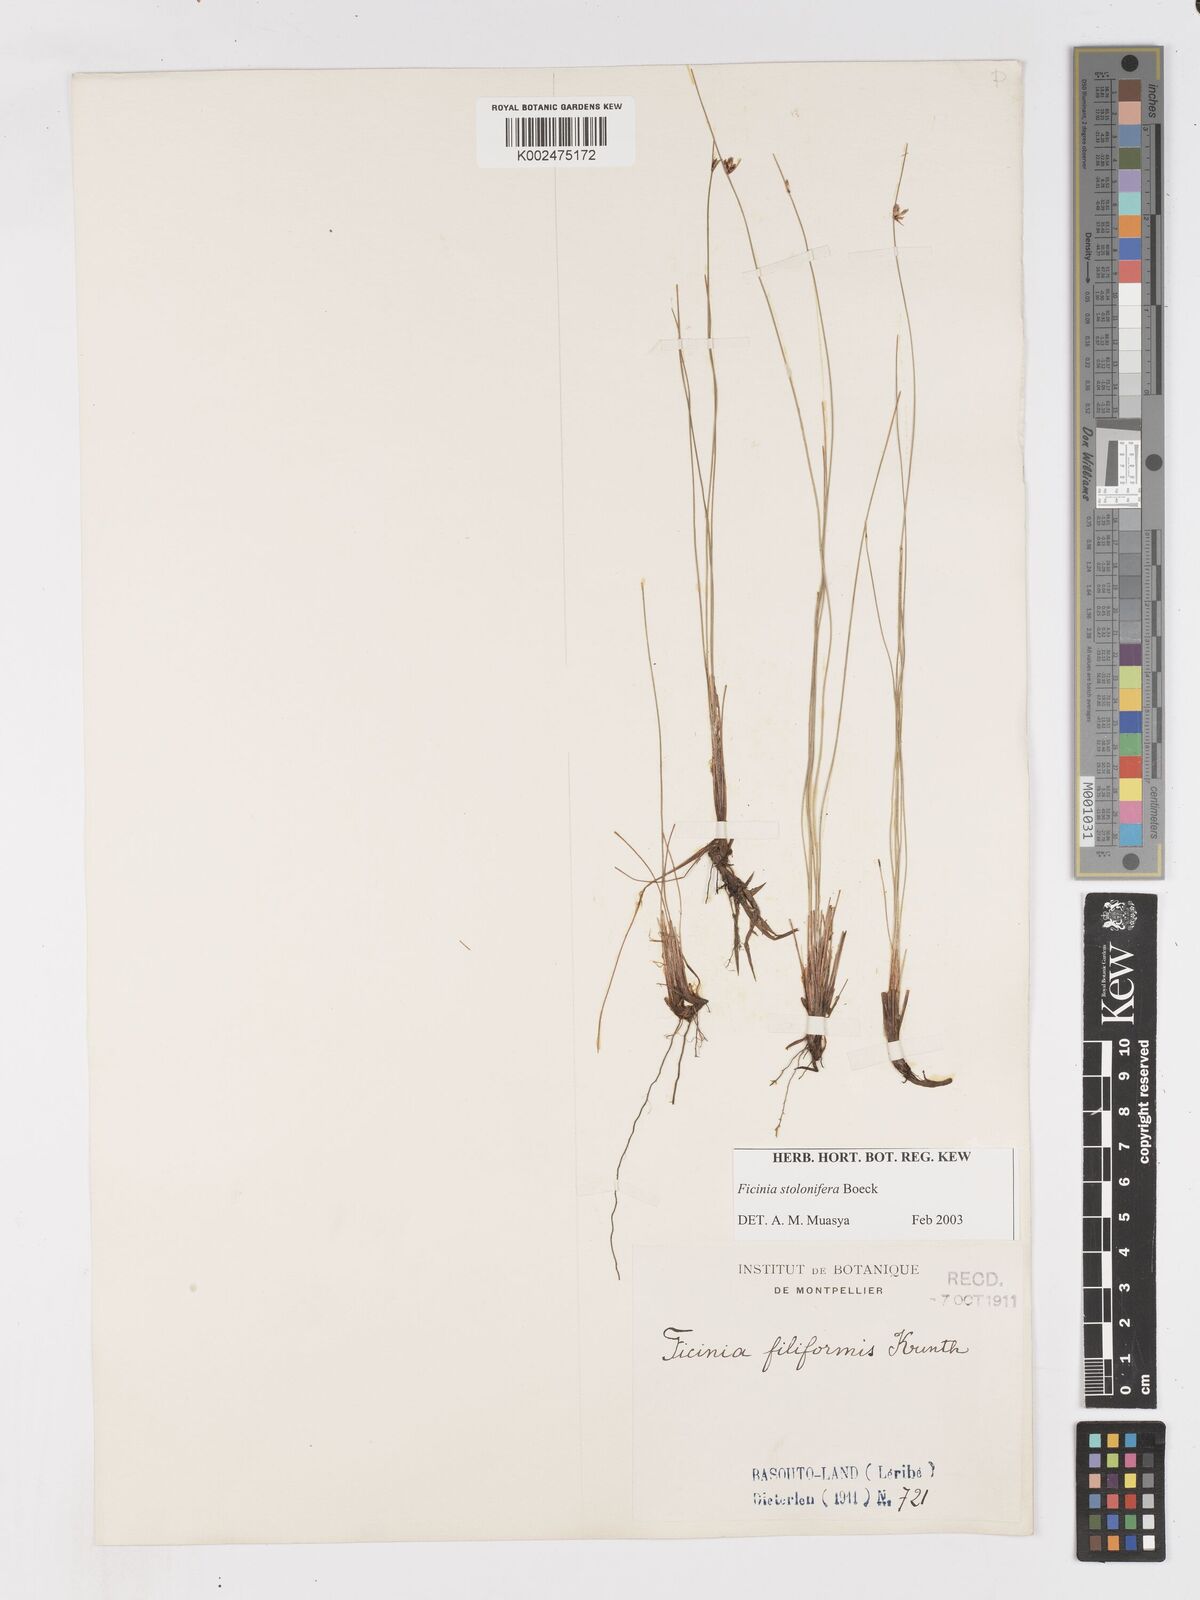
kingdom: Plantae
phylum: Tracheophyta
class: Liliopsida
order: Poales
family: Cyperaceae
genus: Ficinia
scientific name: Ficinia stolonifera
